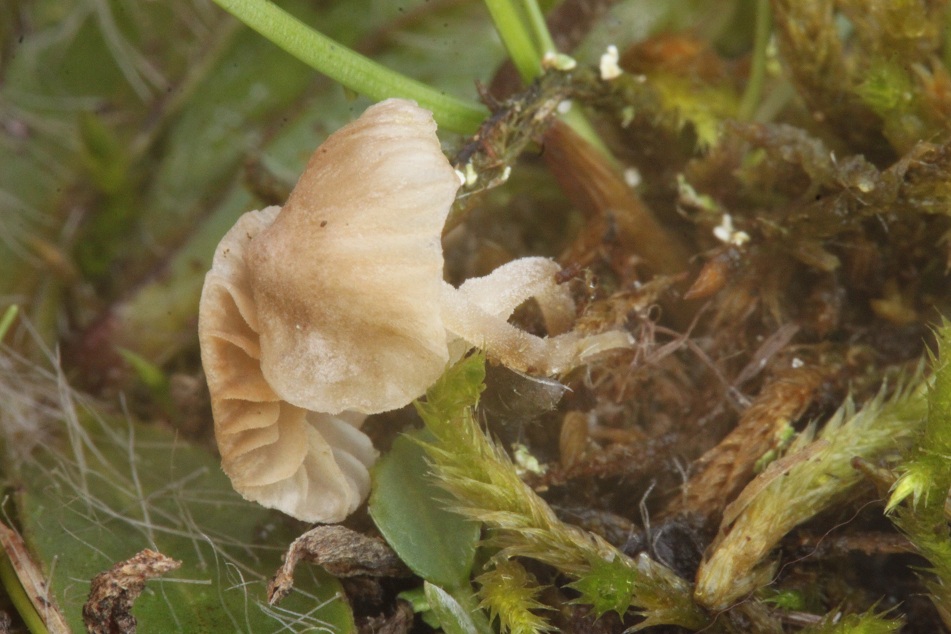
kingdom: Fungi
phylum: Basidiomycota
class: Agaricomycetes
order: Agaricales
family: Tricholomataceae
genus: Mycenella
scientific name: Mycenella salicina
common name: glatsporet dughat
